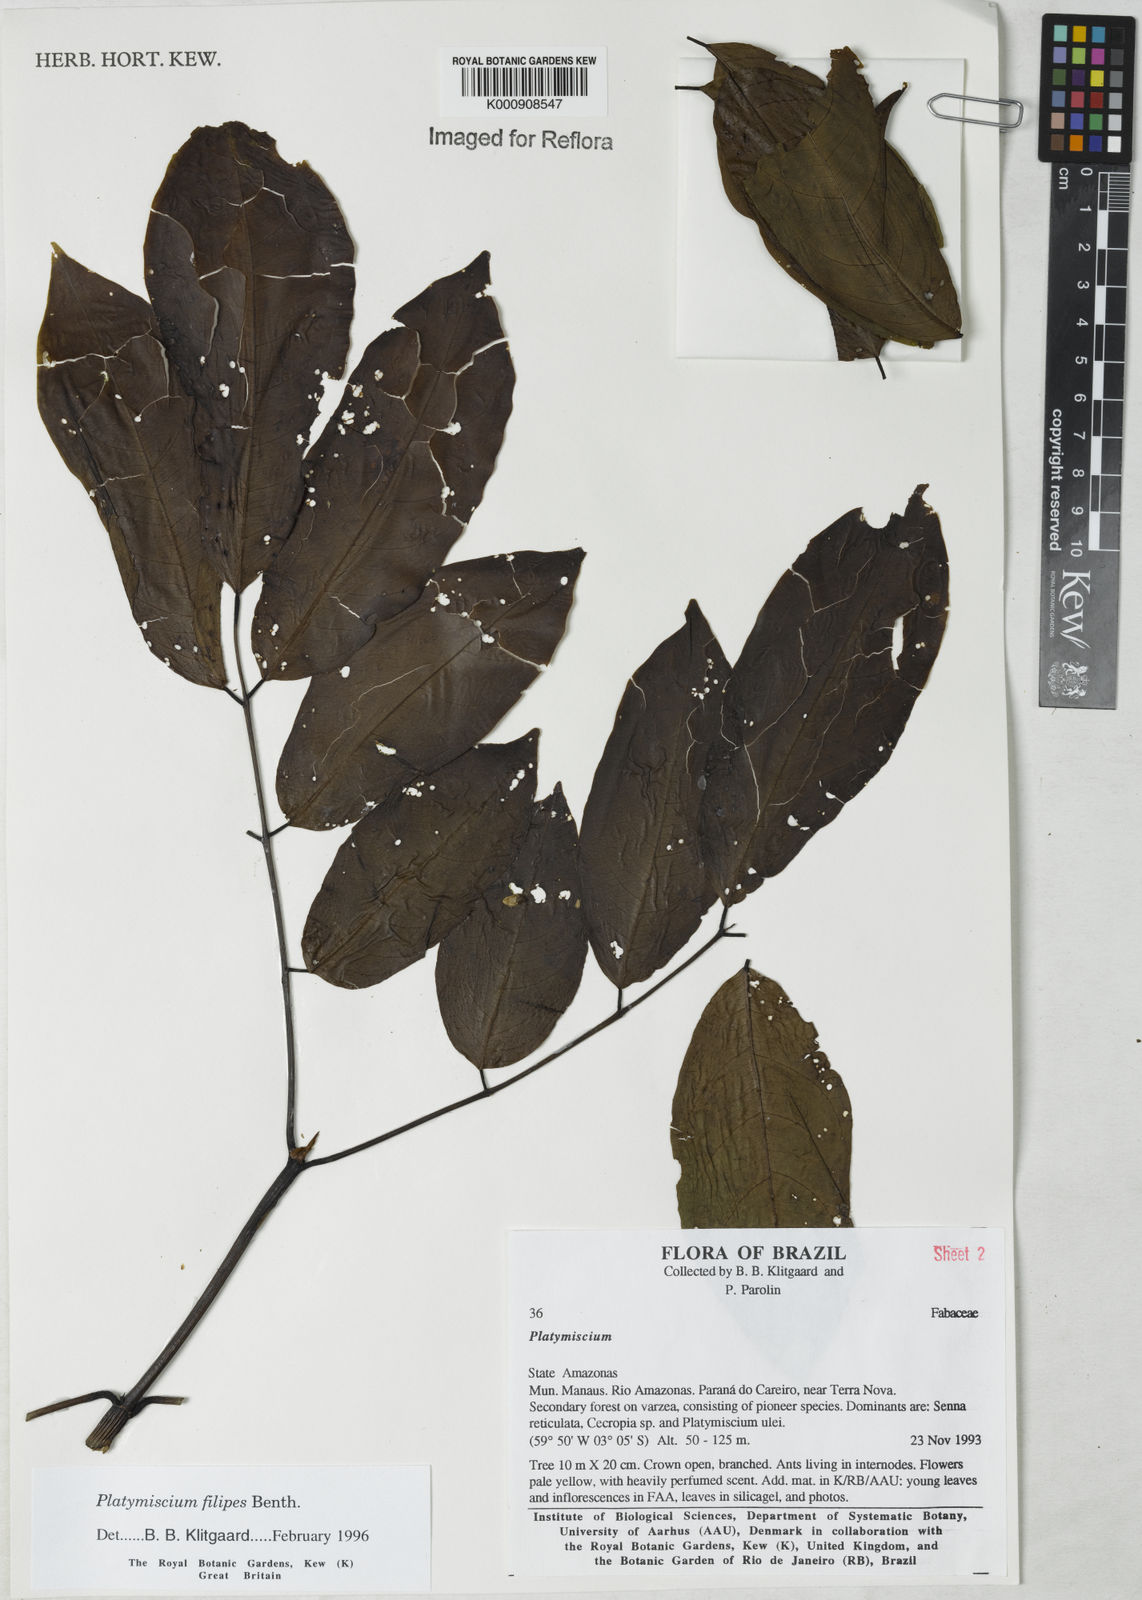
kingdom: Plantae
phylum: Tracheophyta
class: Magnoliopsida
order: Fabales
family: Fabaceae
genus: Platymiscium
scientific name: Platymiscium filipes
